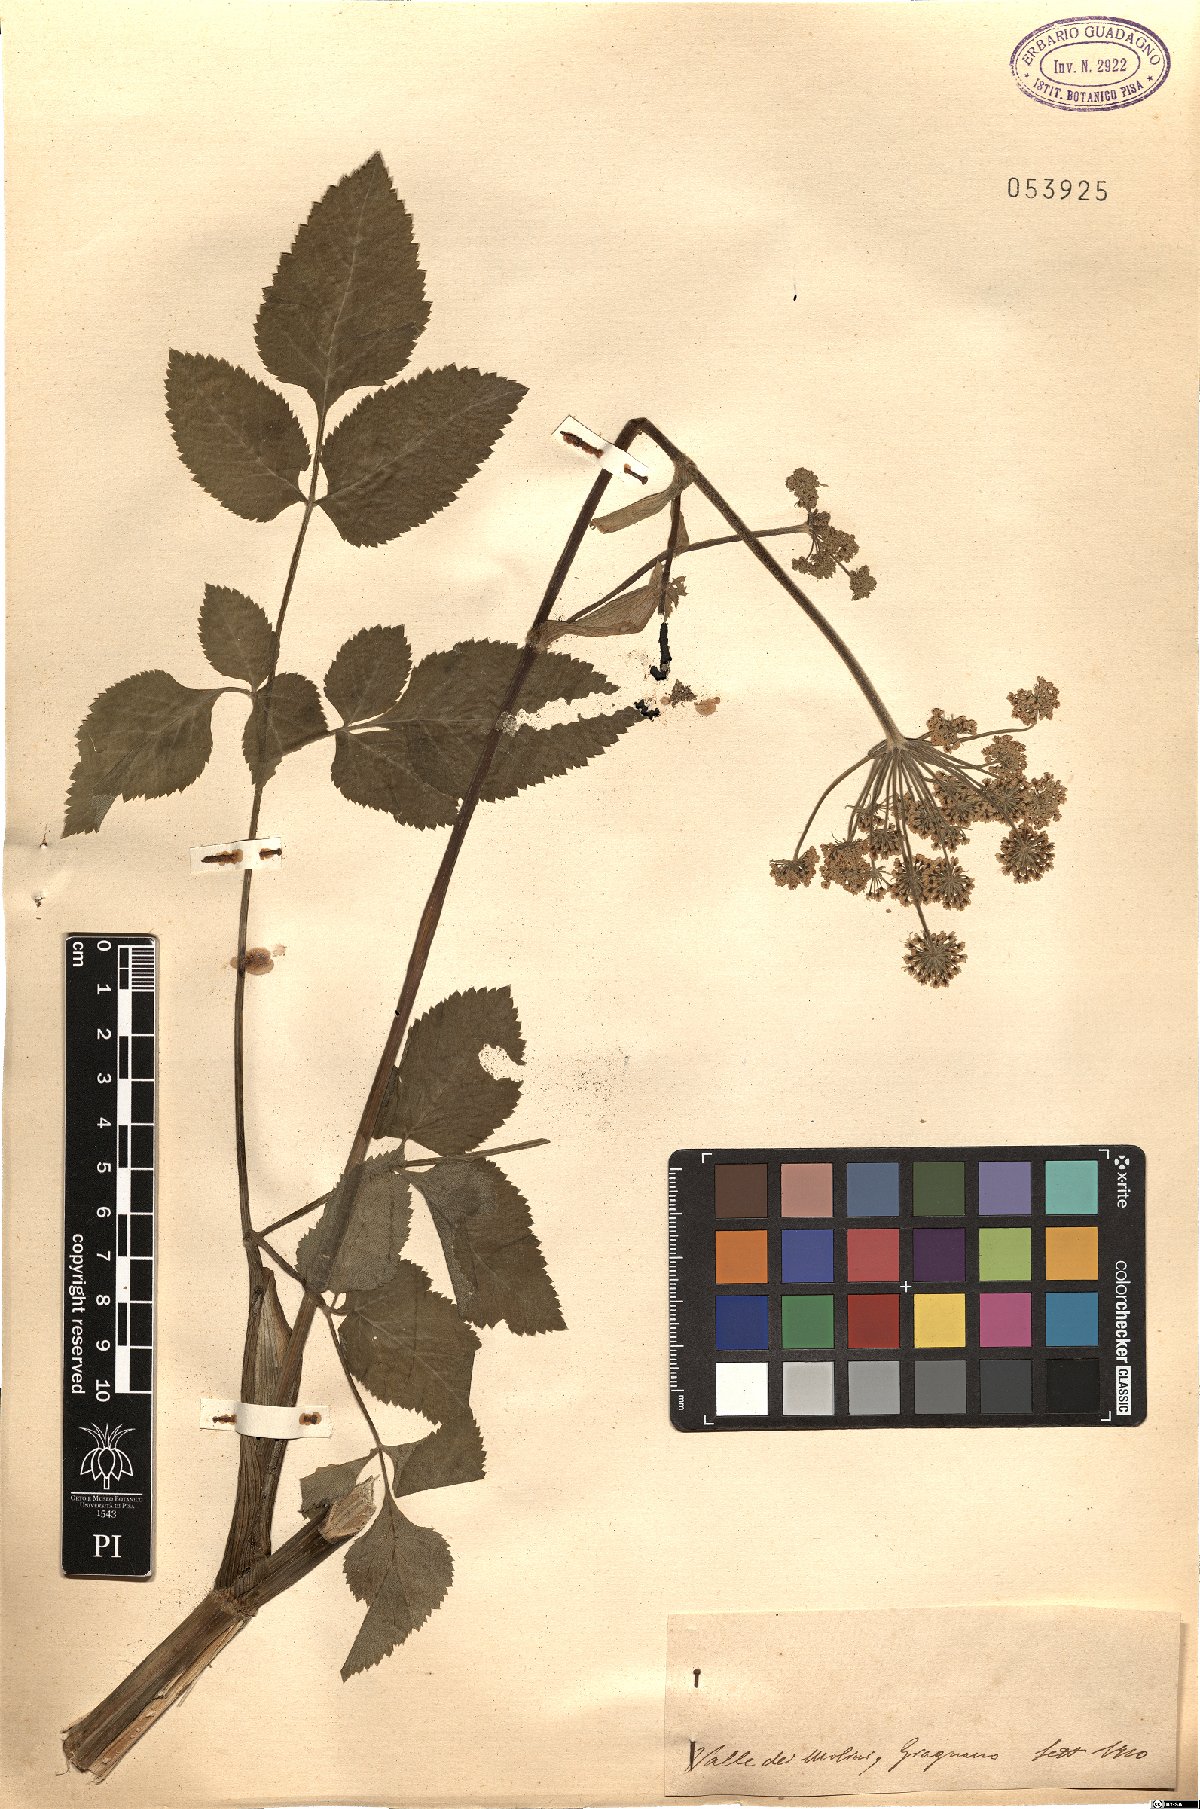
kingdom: Plantae
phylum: Tracheophyta
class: Magnoliopsida
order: Apiales
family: Apiaceae
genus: Angelica
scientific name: Angelica
